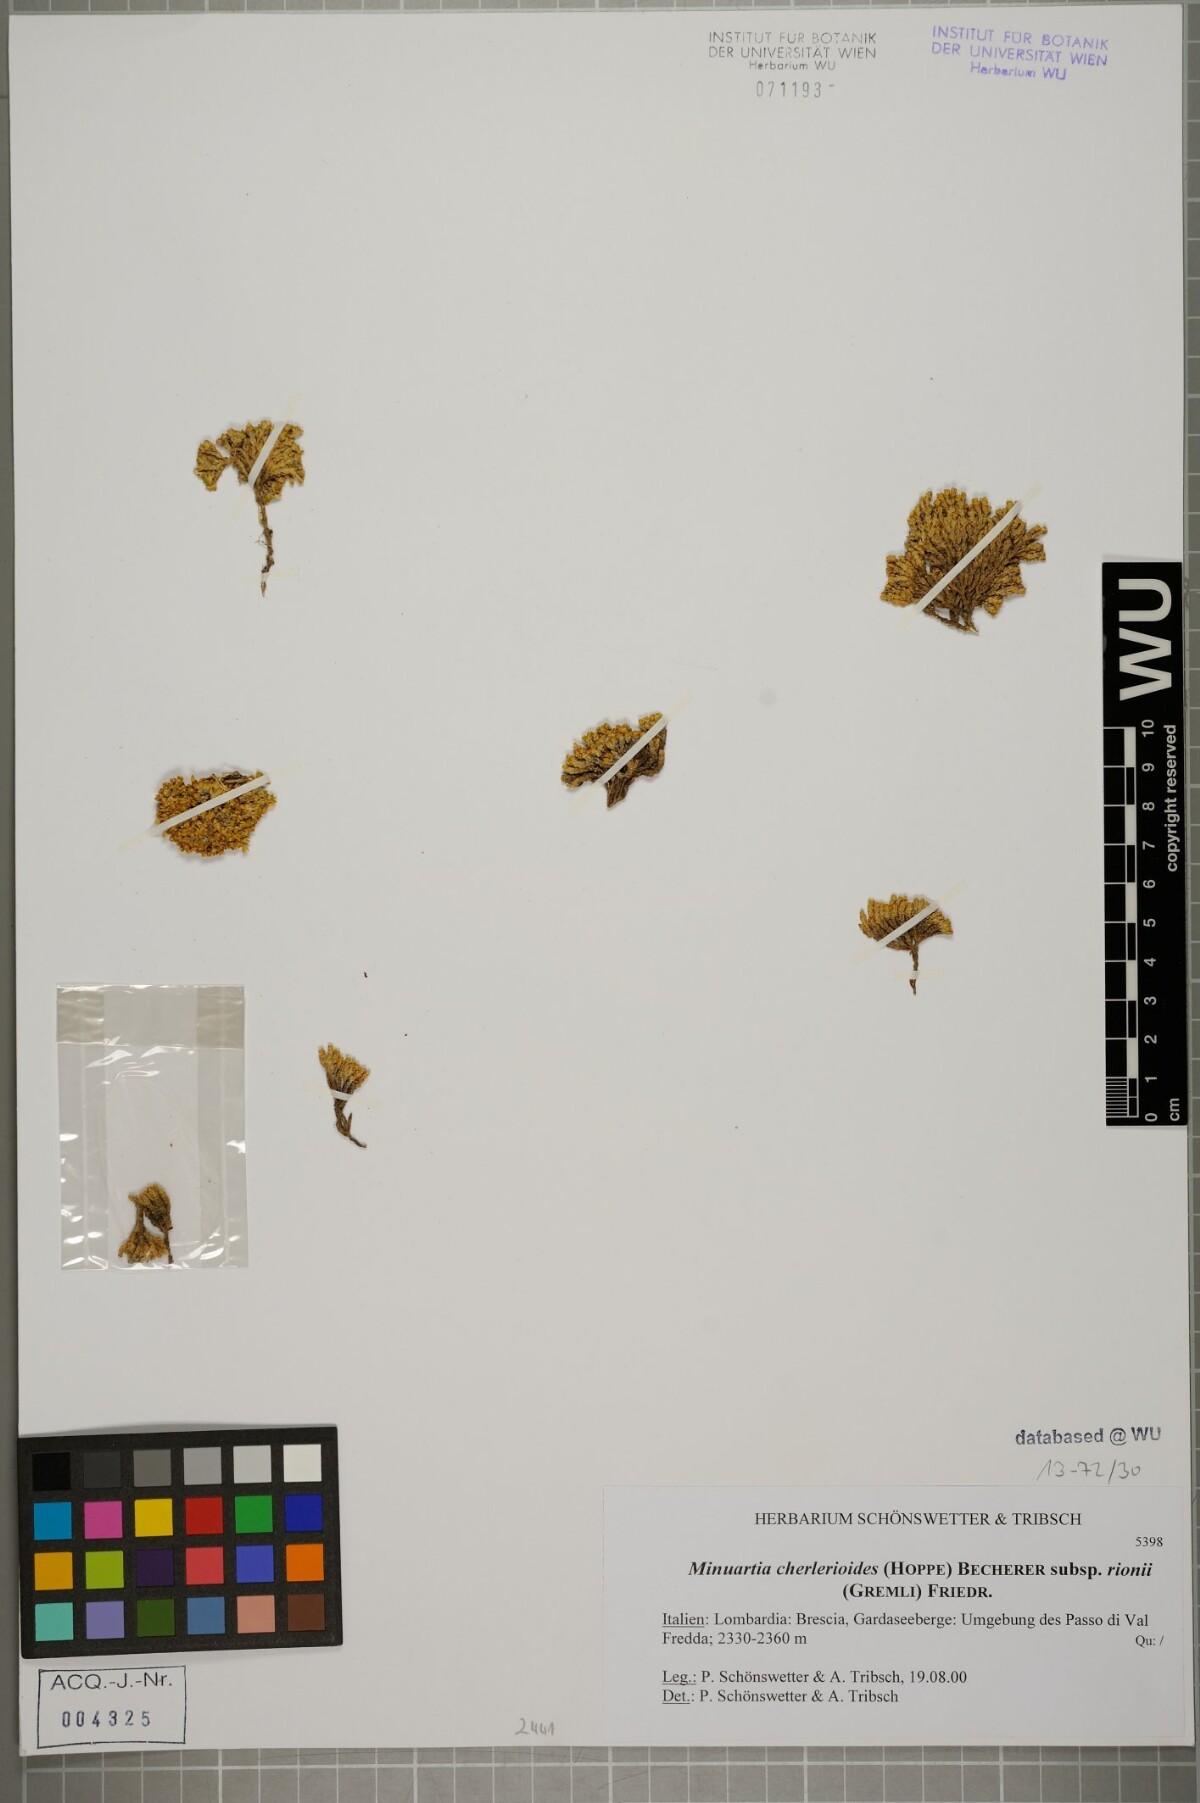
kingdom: Plantae
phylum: Tracheophyta
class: Magnoliopsida
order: Caryophyllales
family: Caryophyllaceae
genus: Facchinia
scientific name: Facchinia herniarioides
